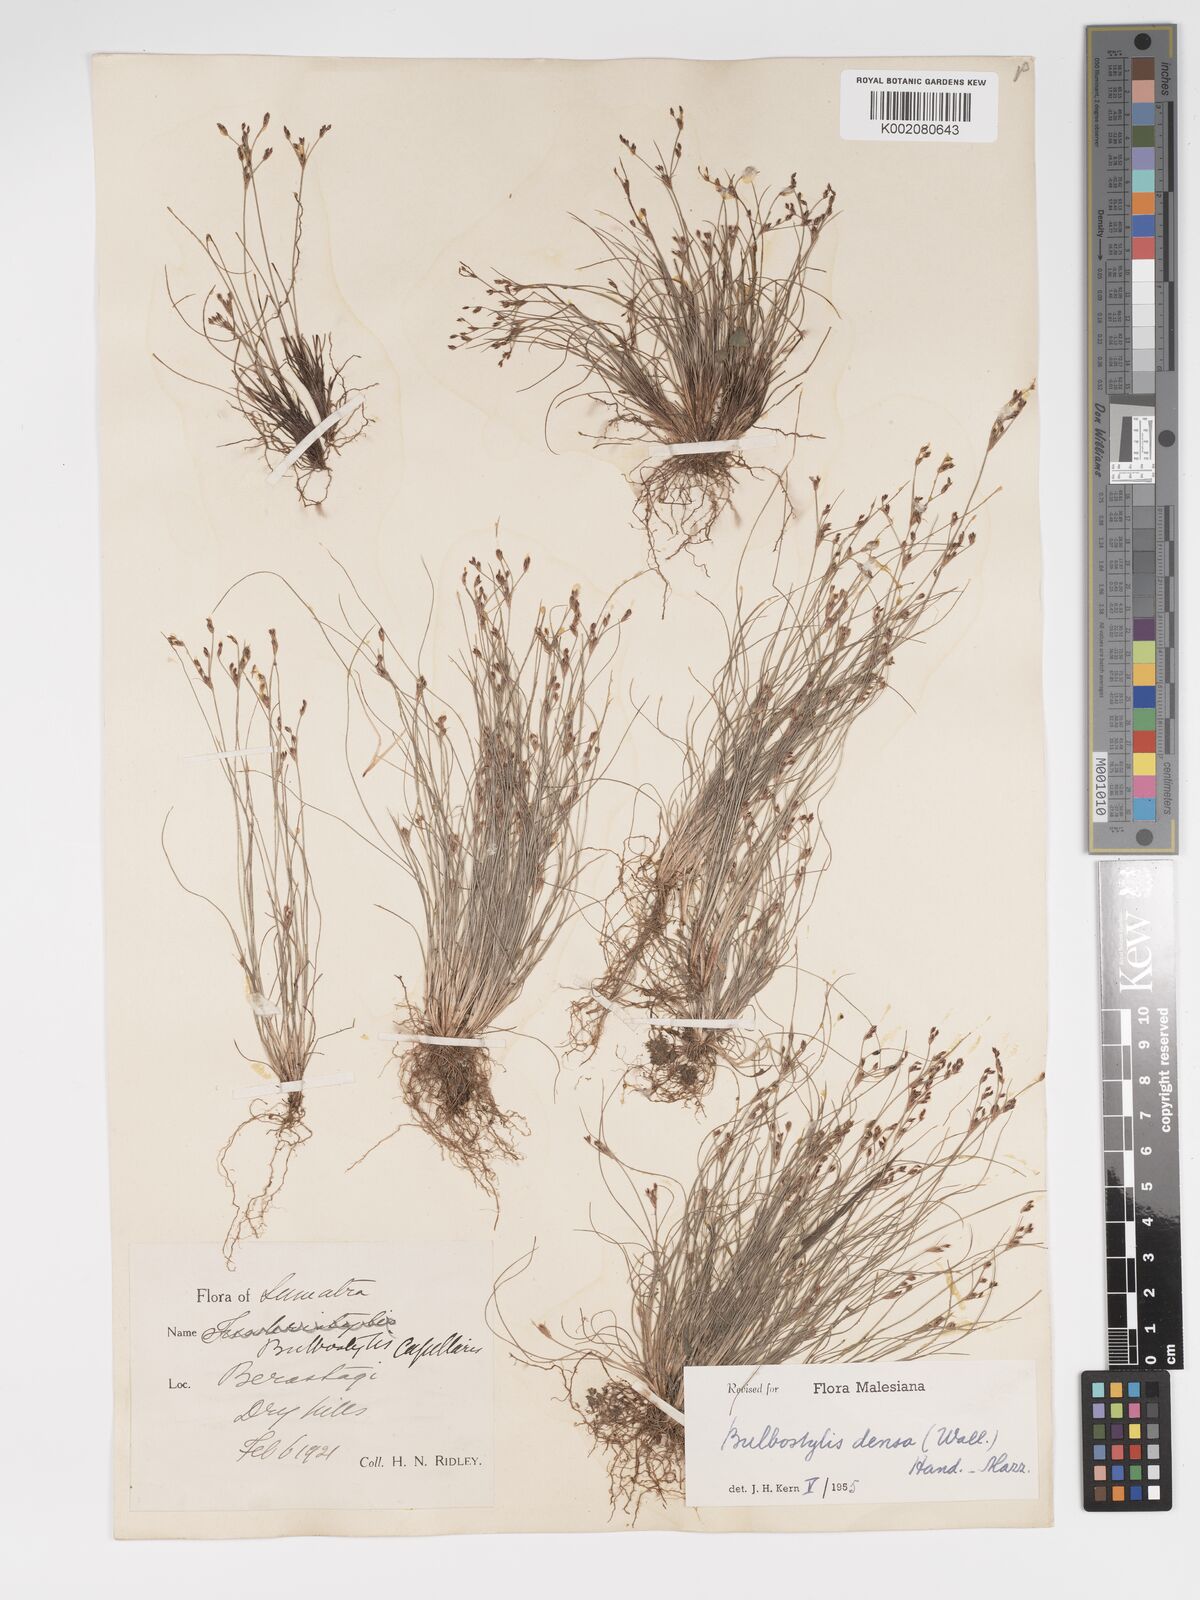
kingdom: Plantae
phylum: Tracheophyta
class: Liliopsida
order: Poales
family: Cyperaceae
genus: Bulbostylis
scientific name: Bulbostylis densa
